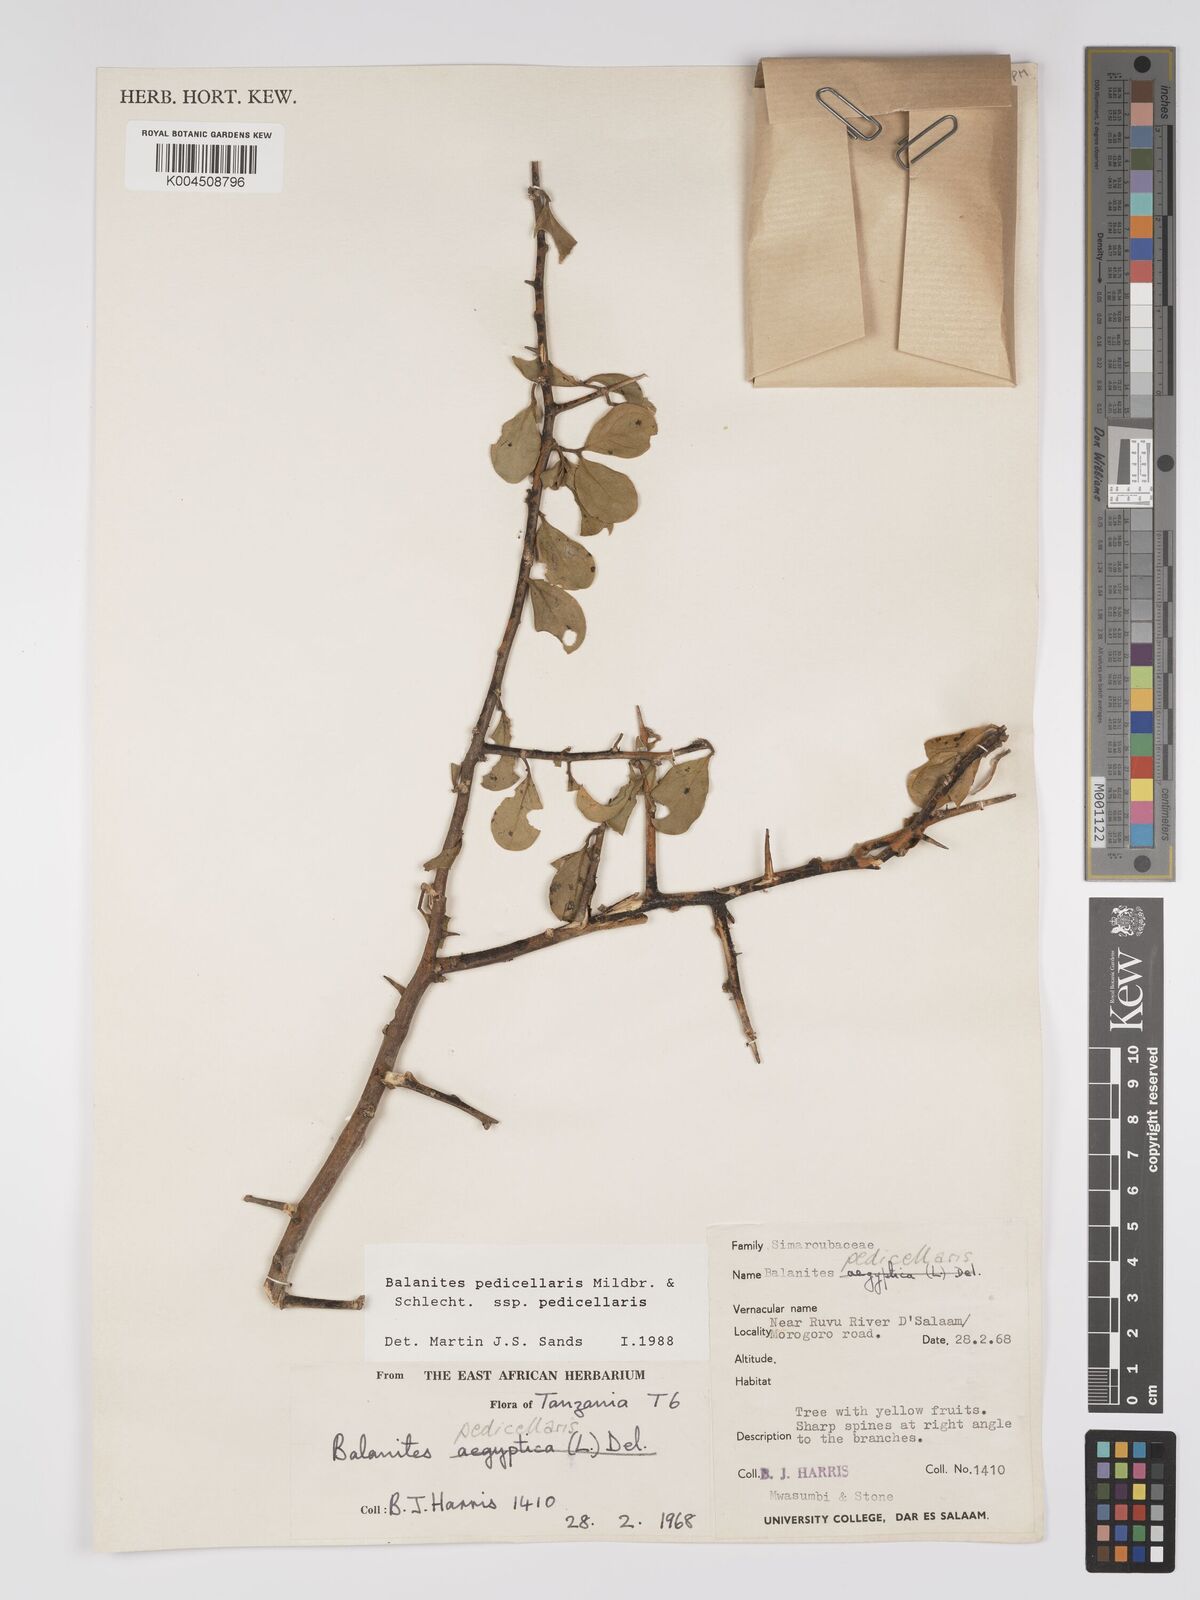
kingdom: Plantae
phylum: Tracheophyta
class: Magnoliopsida
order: Zygophyllales
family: Zygophyllaceae
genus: Balanites
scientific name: Balanites pedicellaris
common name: Small green-thorn
